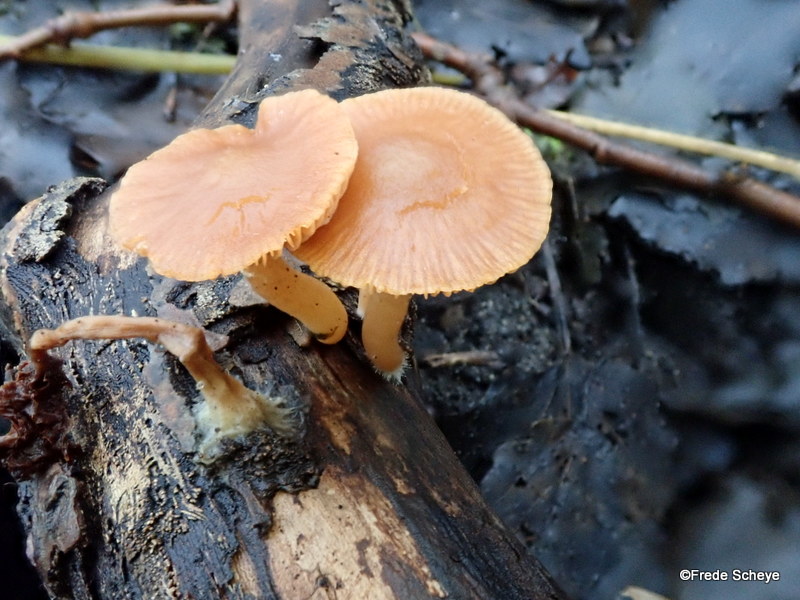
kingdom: Fungi
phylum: Basidiomycota
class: Agaricomycetes
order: Agaricales
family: Tubariaceae
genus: Tubaria
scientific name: Tubaria furfuracea
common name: kliddet fnughat
